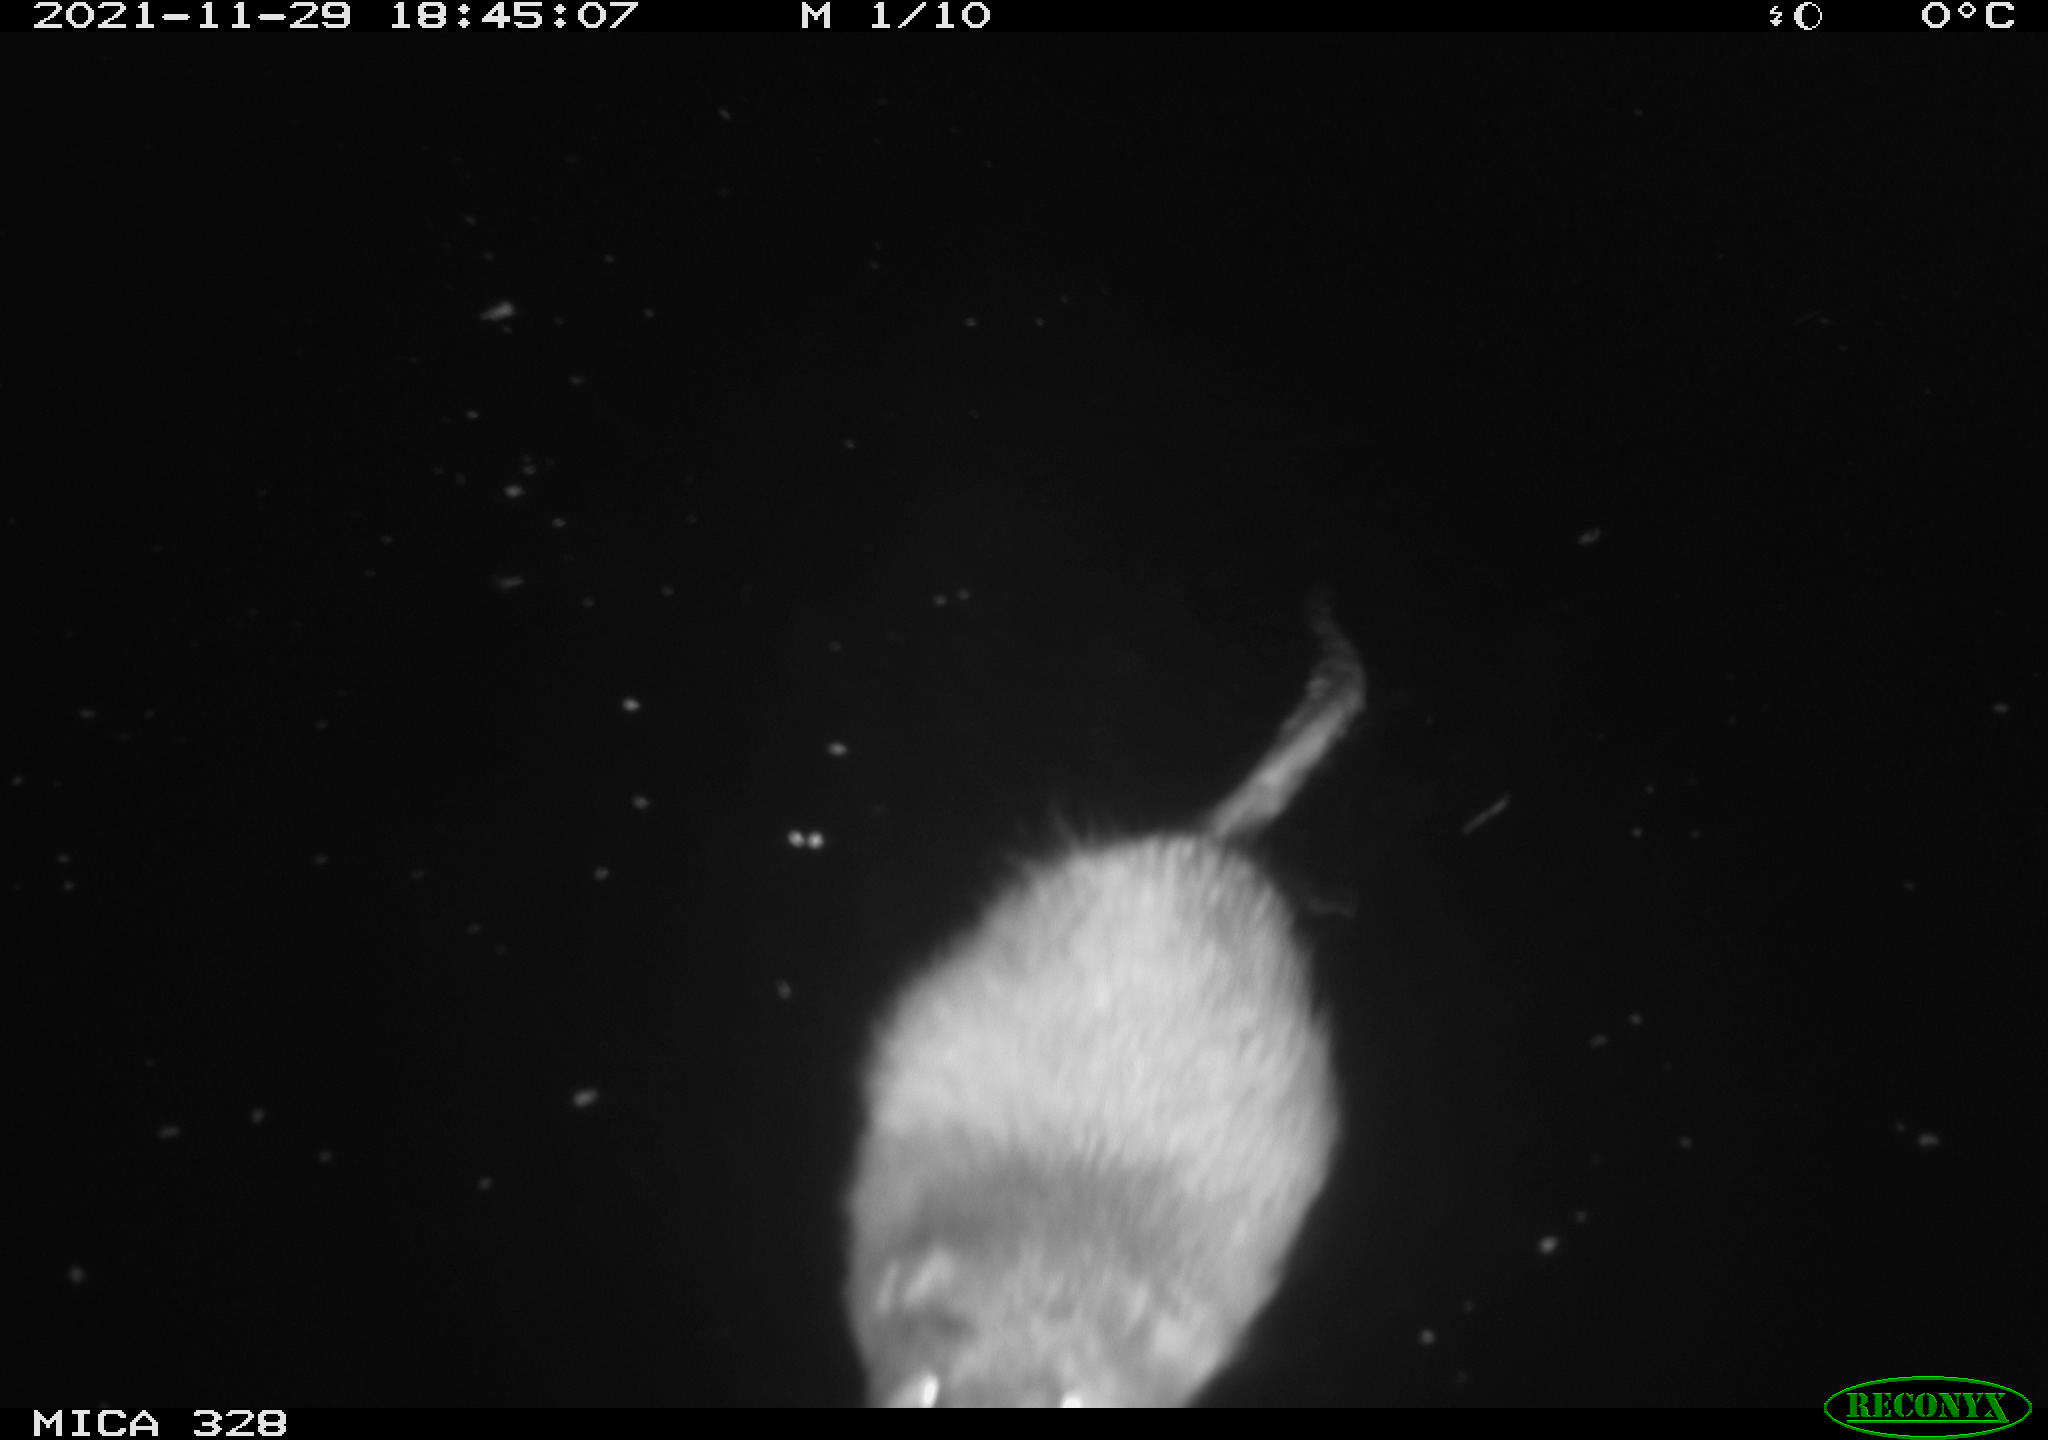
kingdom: Animalia
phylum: Chordata
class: Mammalia
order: Rodentia
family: Cricetidae
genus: Ondatra
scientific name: Ondatra zibethicus
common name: Muskrat
